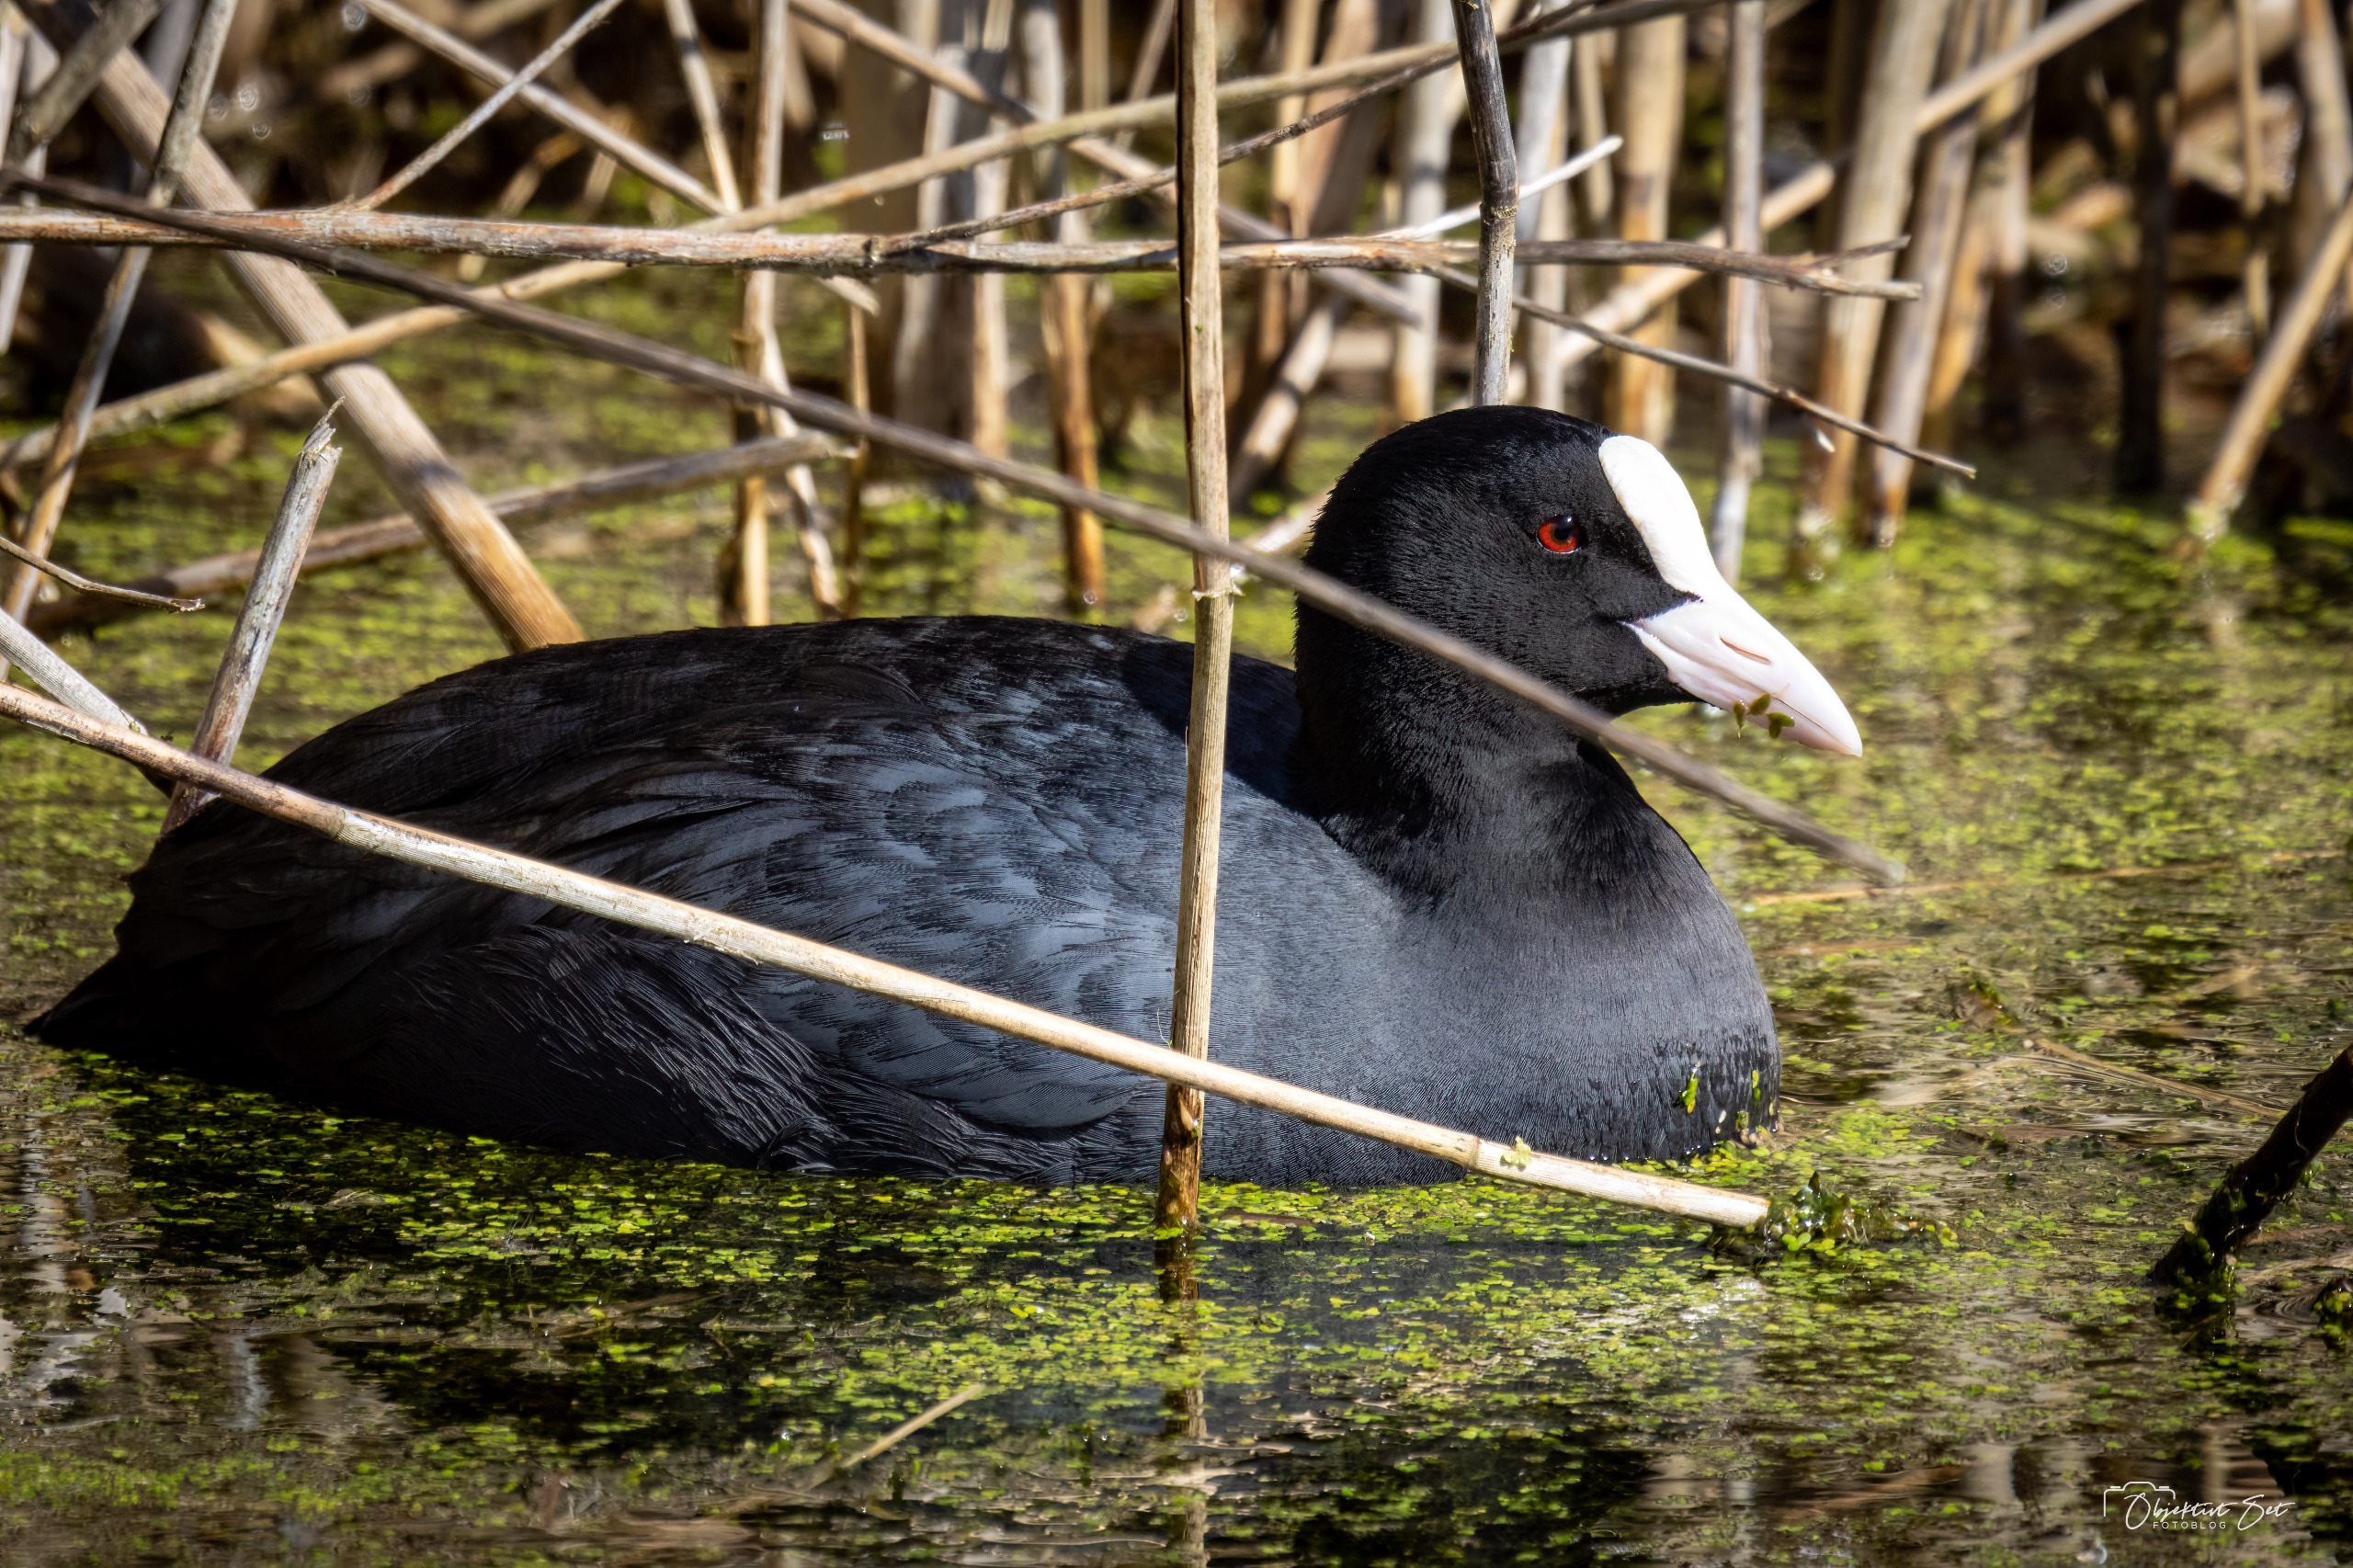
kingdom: Animalia
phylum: Chordata
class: Aves
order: Gruiformes
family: Rallidae
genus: Fulica
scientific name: Fulica atra
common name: Blishøne
